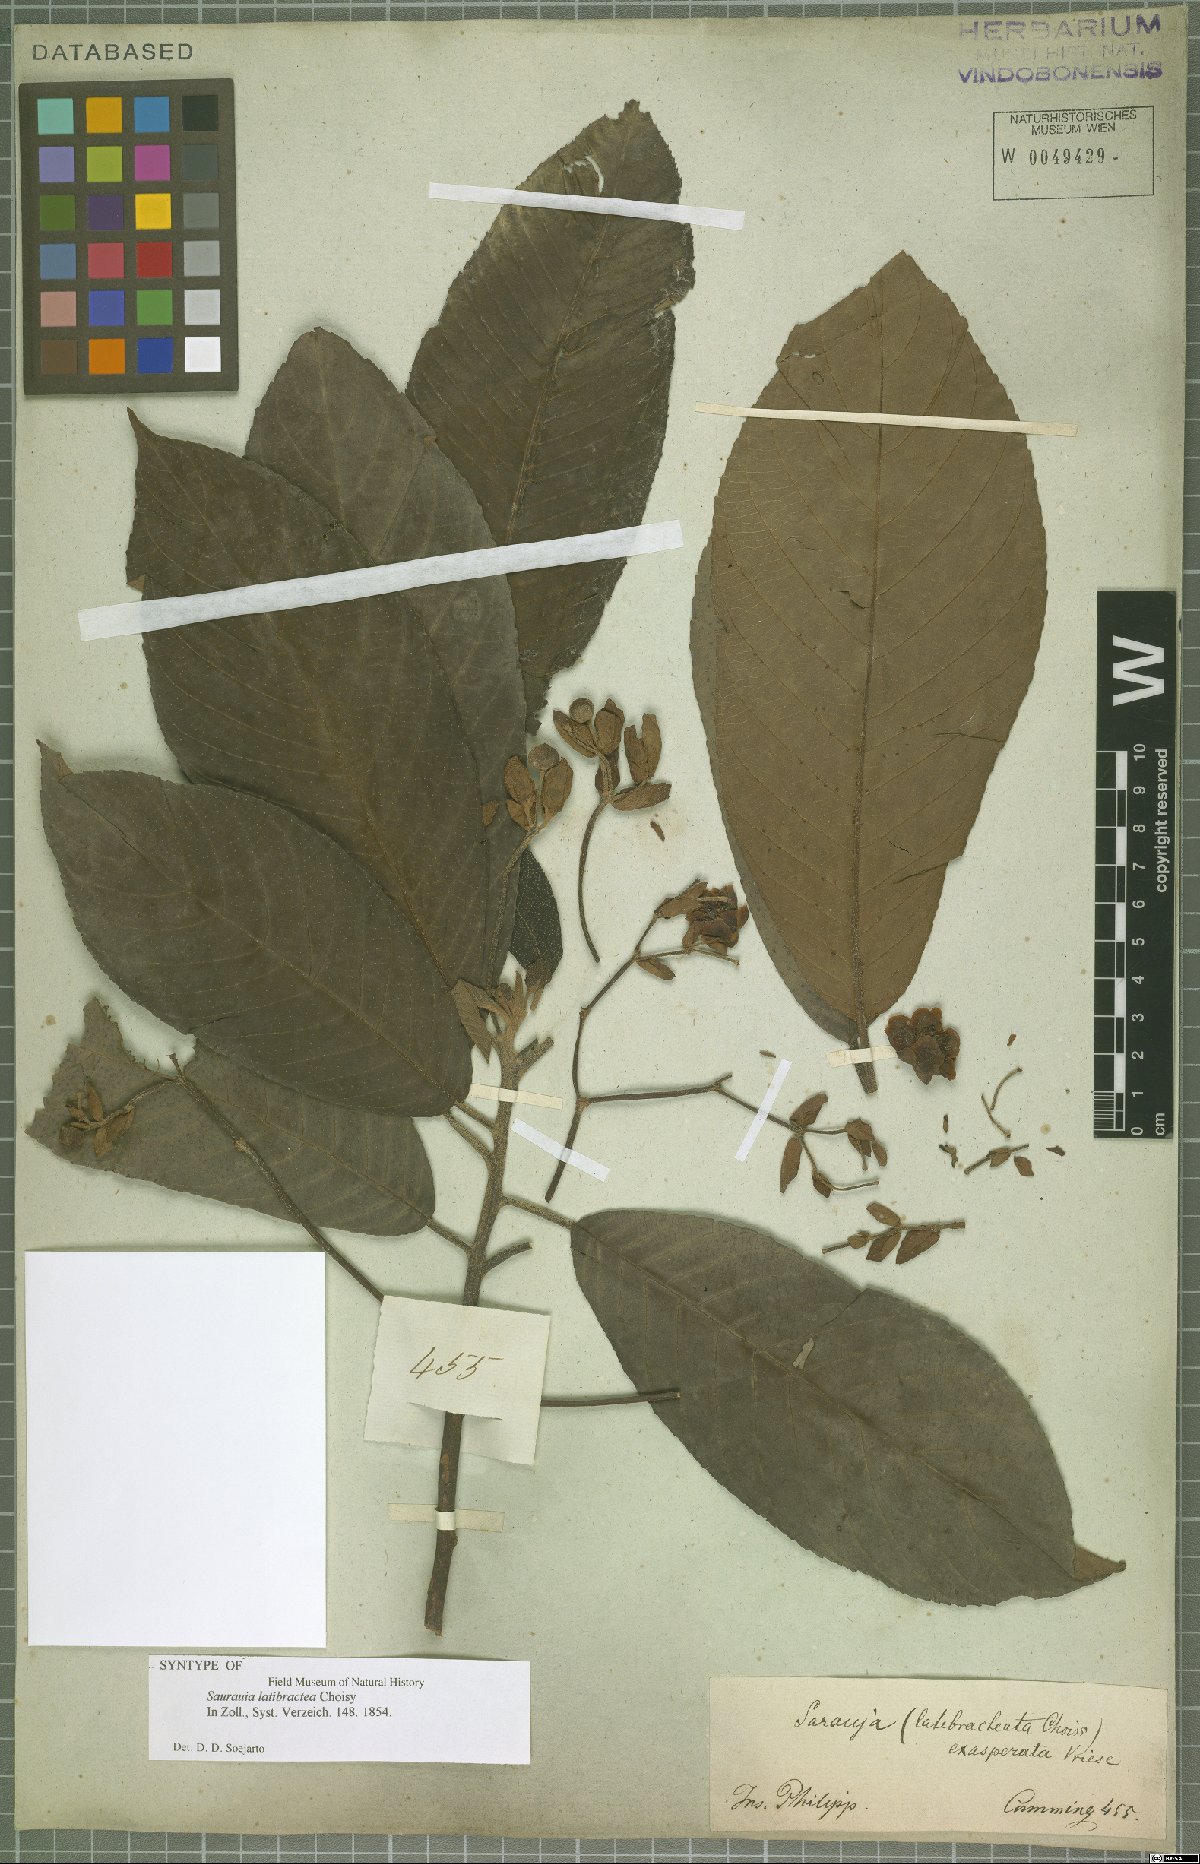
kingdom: Plantae
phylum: Tracheophyta
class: Magnoliopsida
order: Ericales
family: Actinidiaceae
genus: Saurauia
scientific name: Saurauia latibractea
